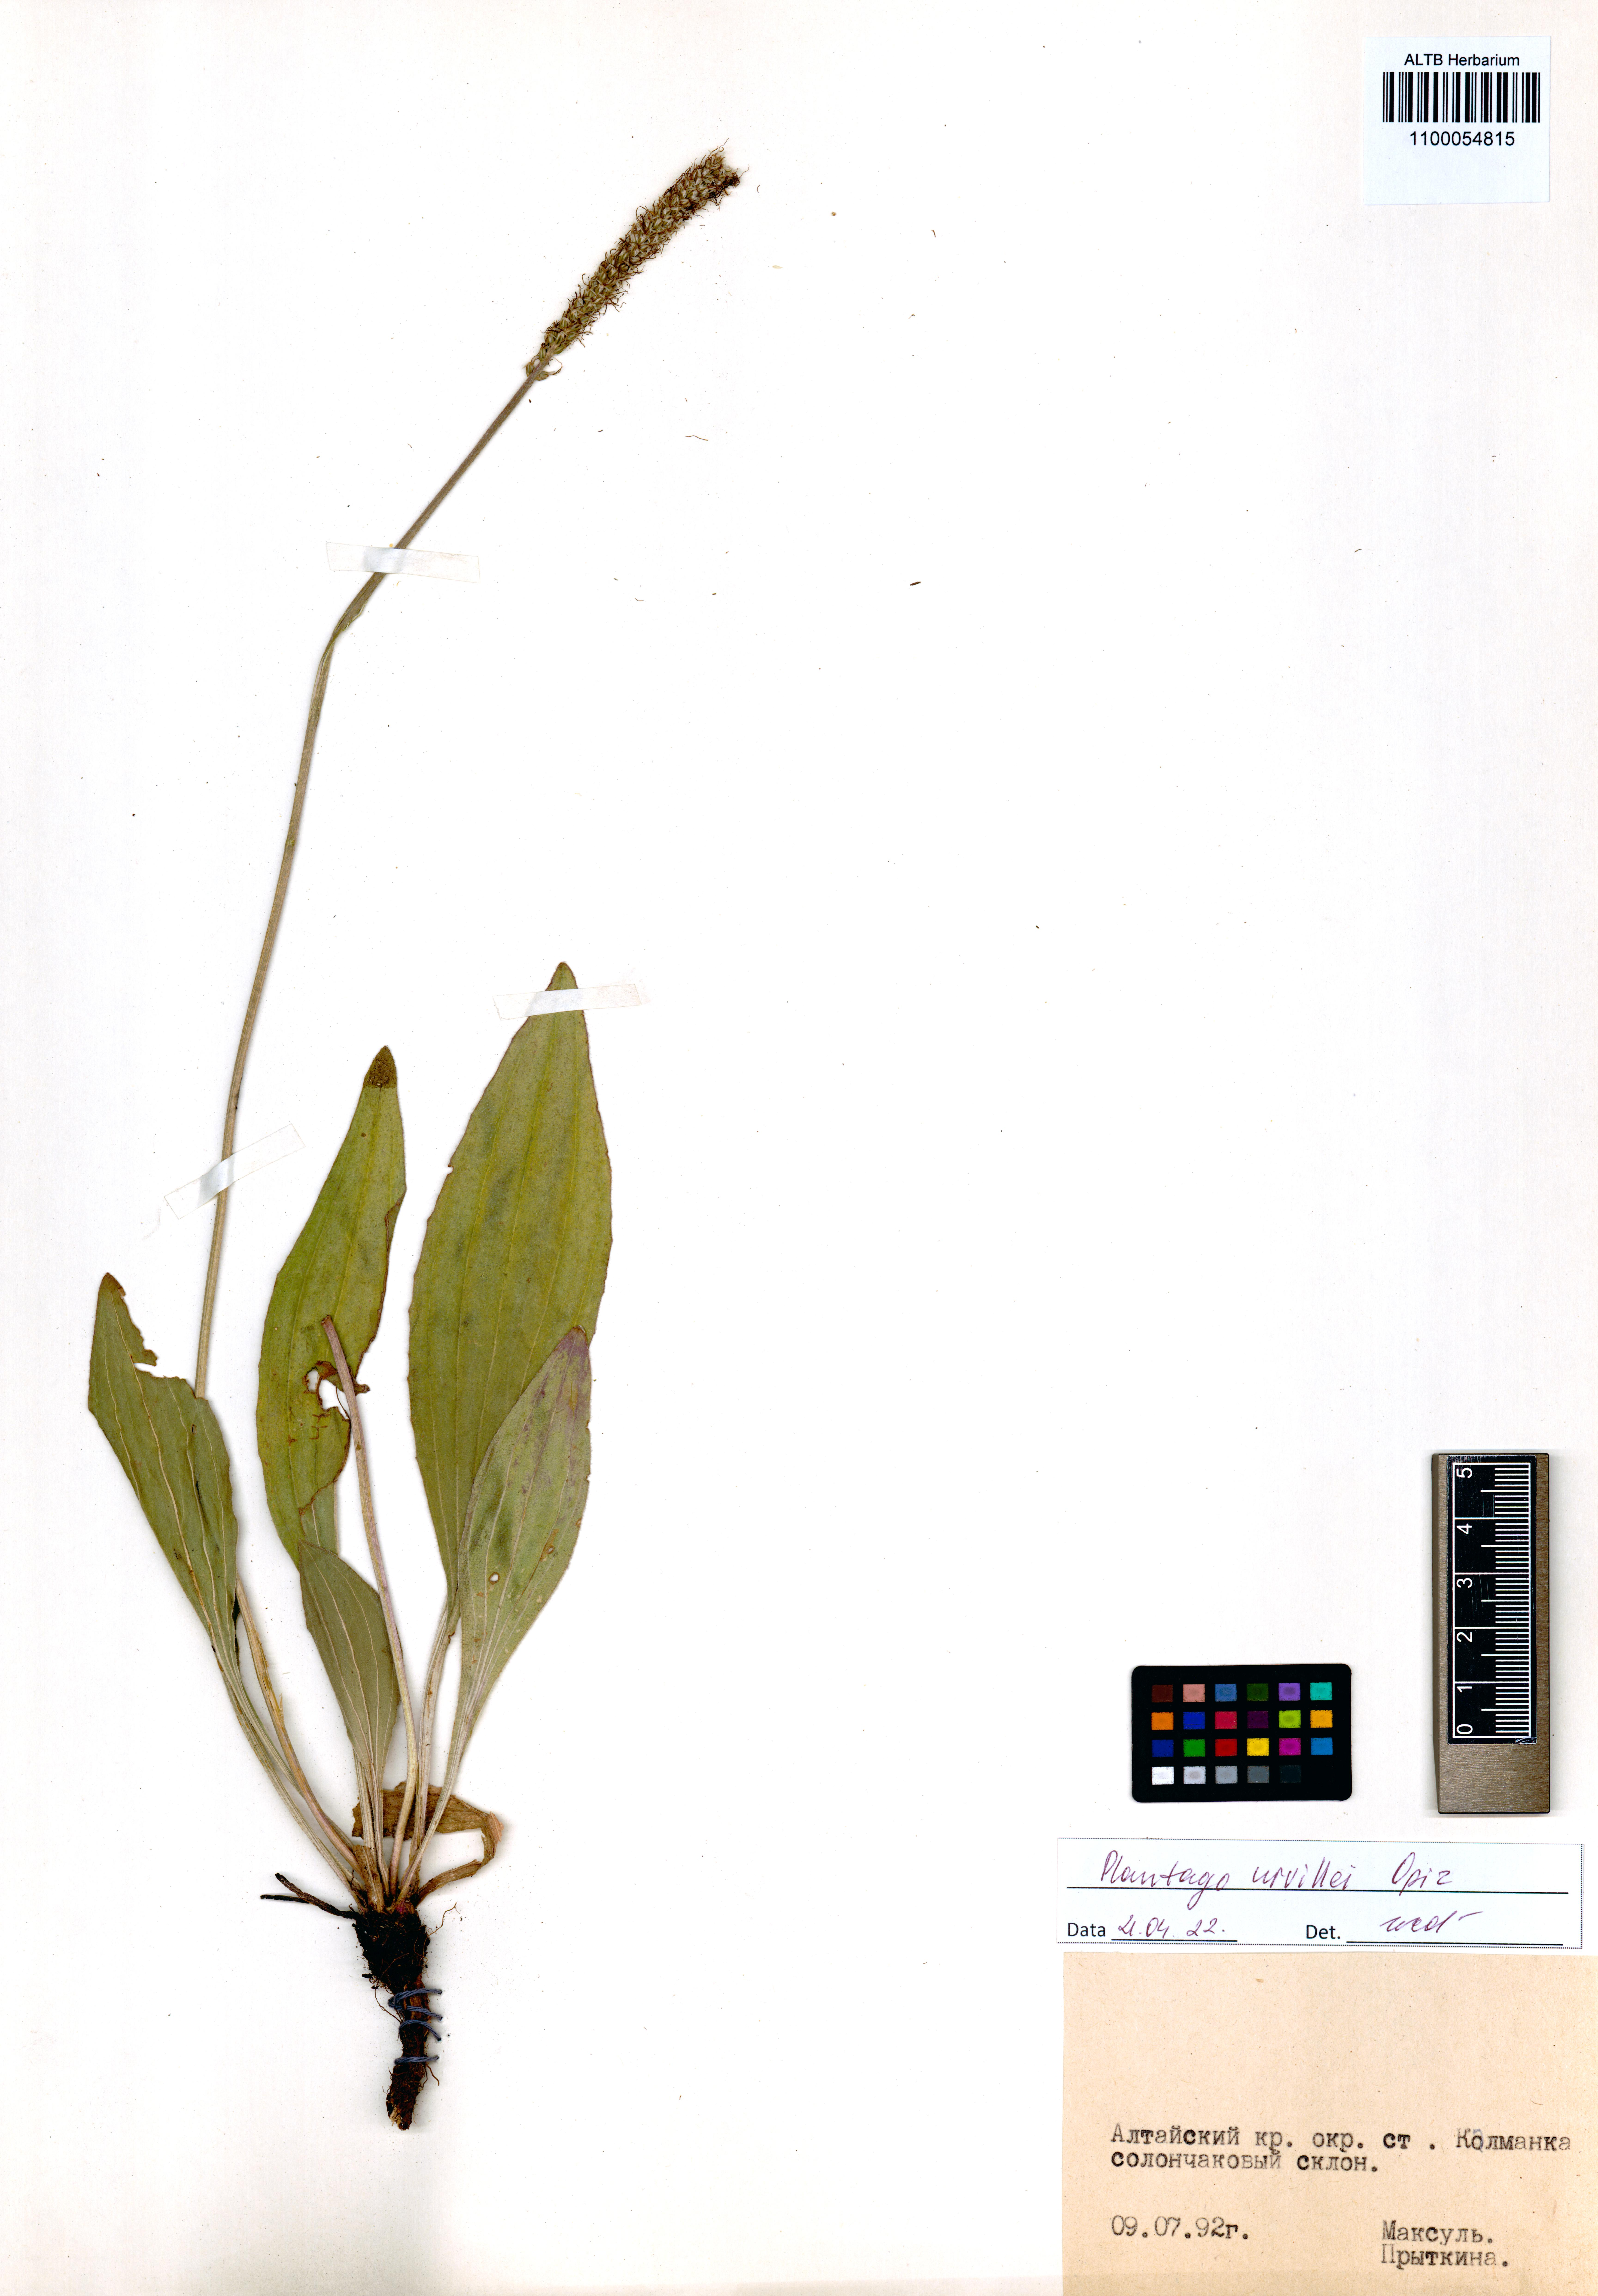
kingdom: Plantae
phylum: Tracheophyta
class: Magnoliopsida
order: Lamiales
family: Plantaginaceae
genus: Plantago
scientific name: Plantago urvillei
